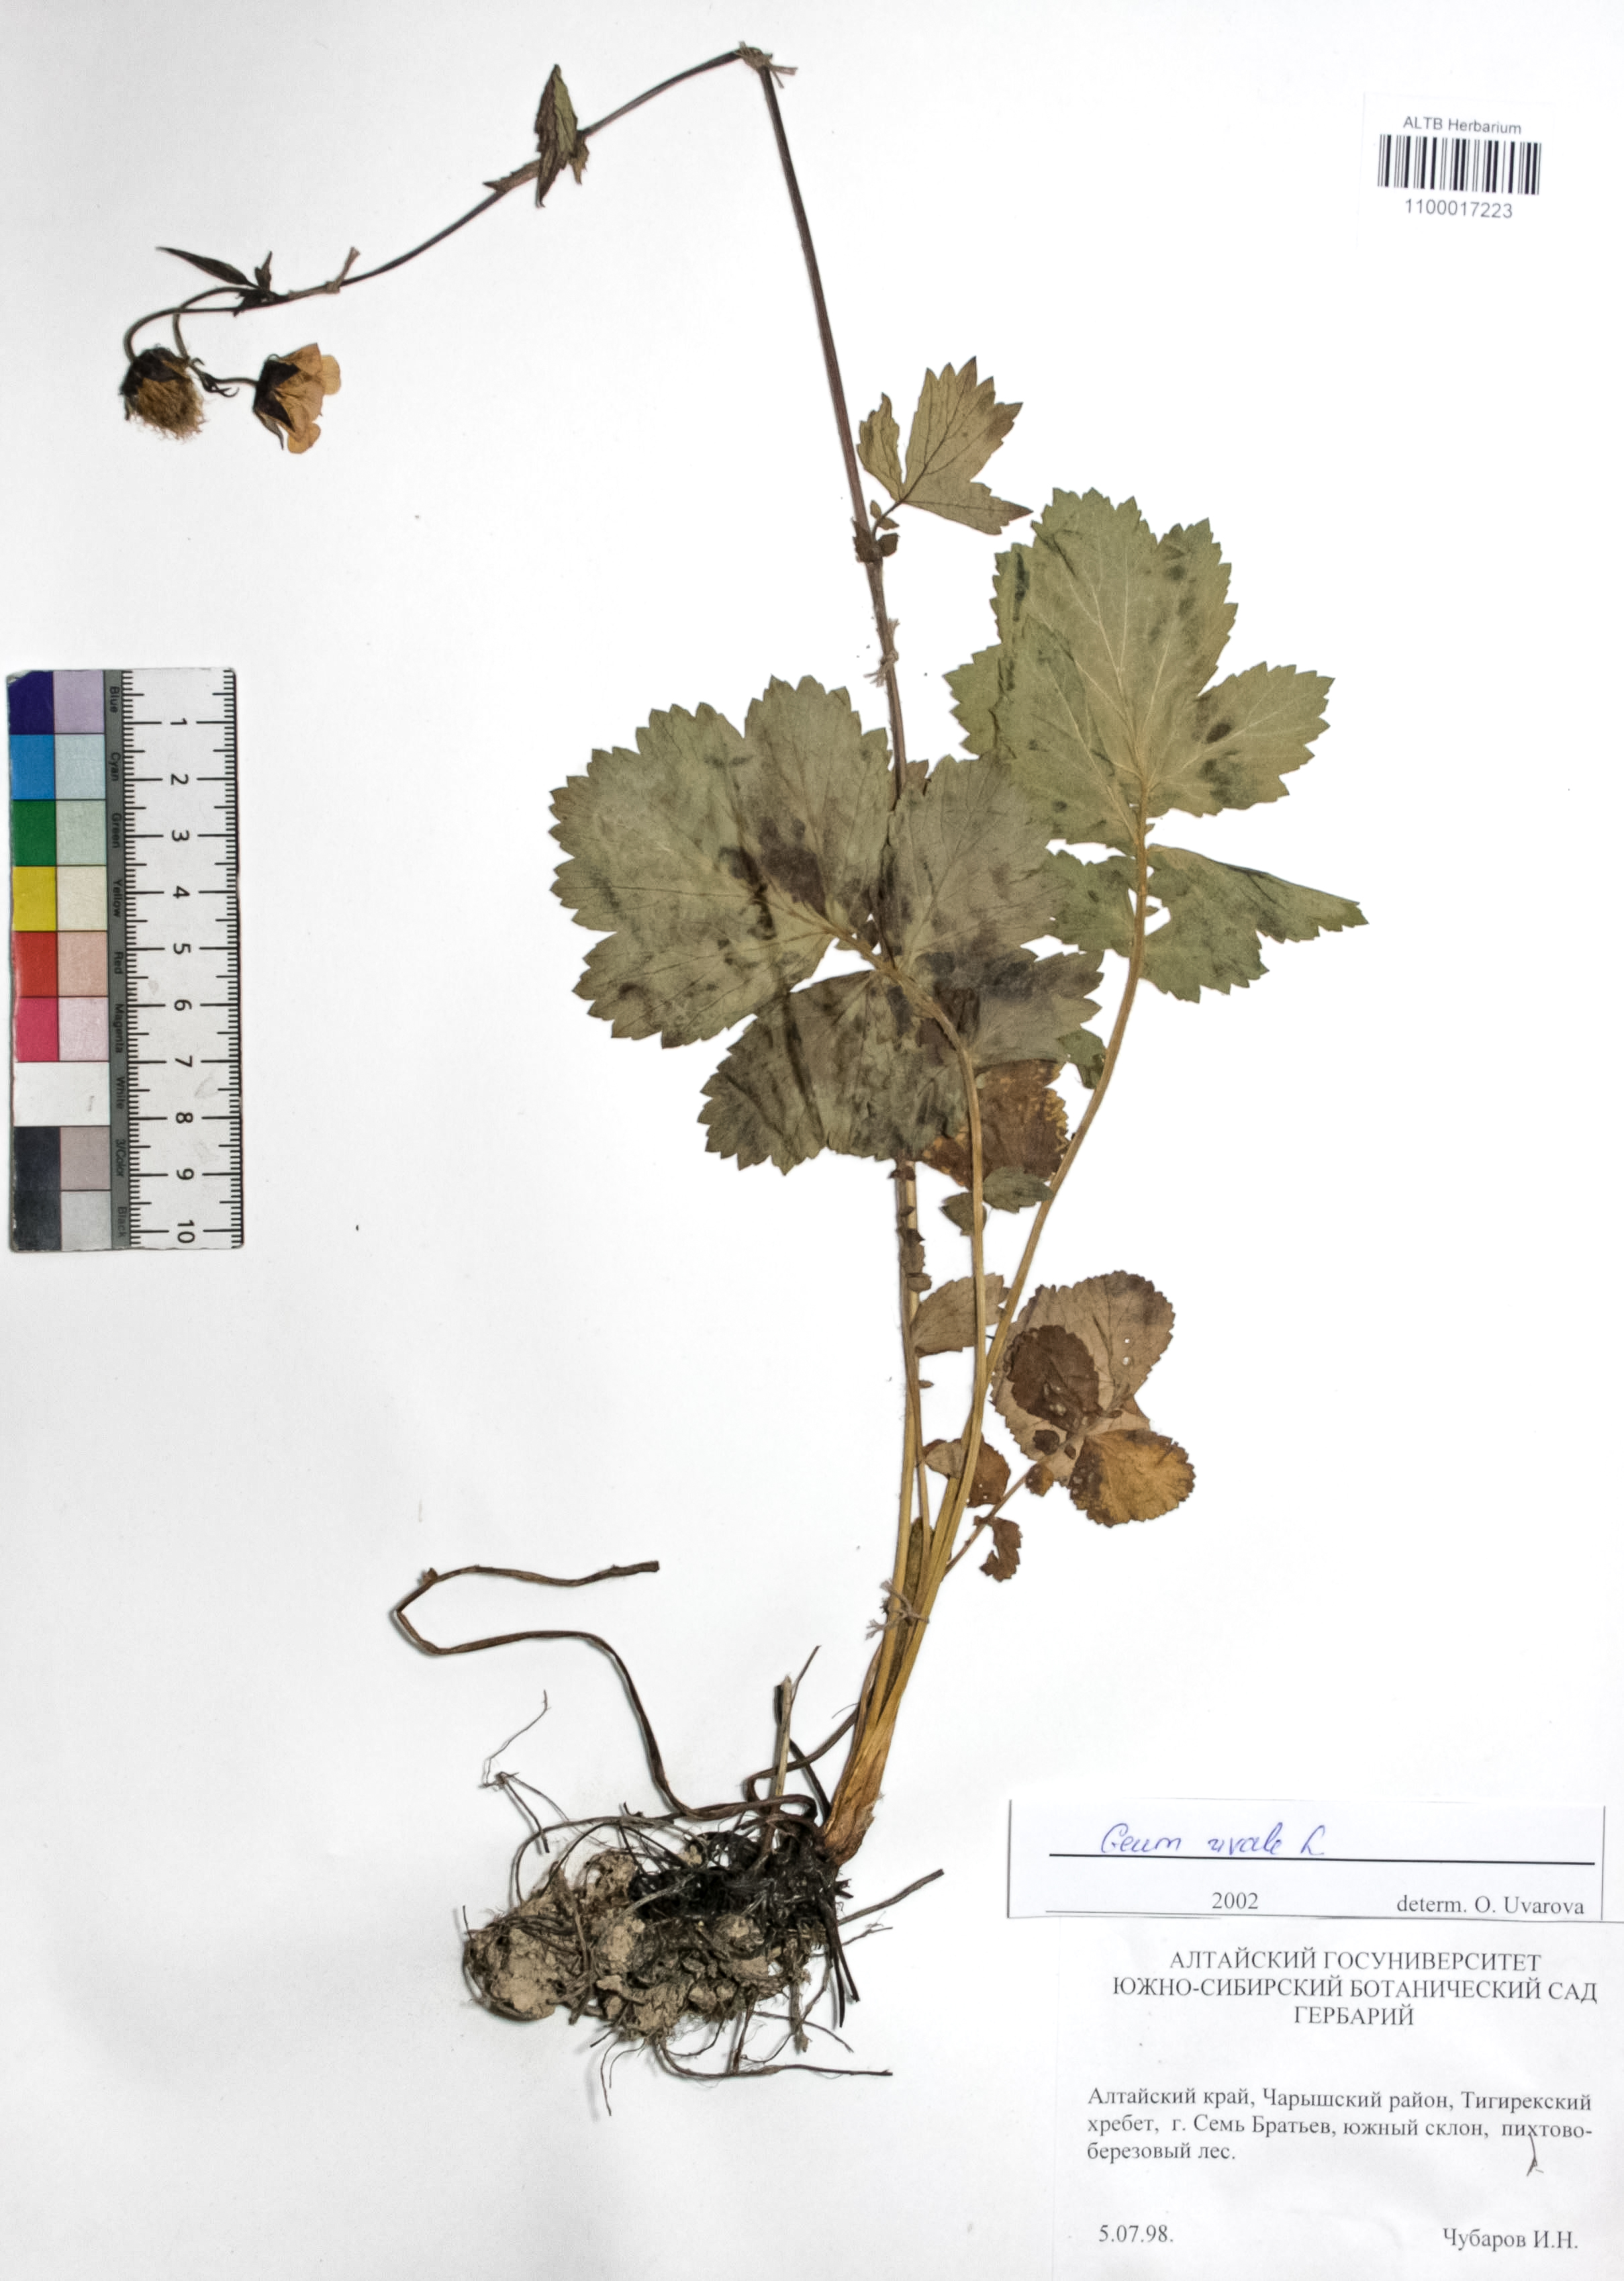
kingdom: Plantae
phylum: Tracheophyta
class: Magnoliopsida
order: Rosales
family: Rosaceae
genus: Geum
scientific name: Geum rivale
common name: Water avens
